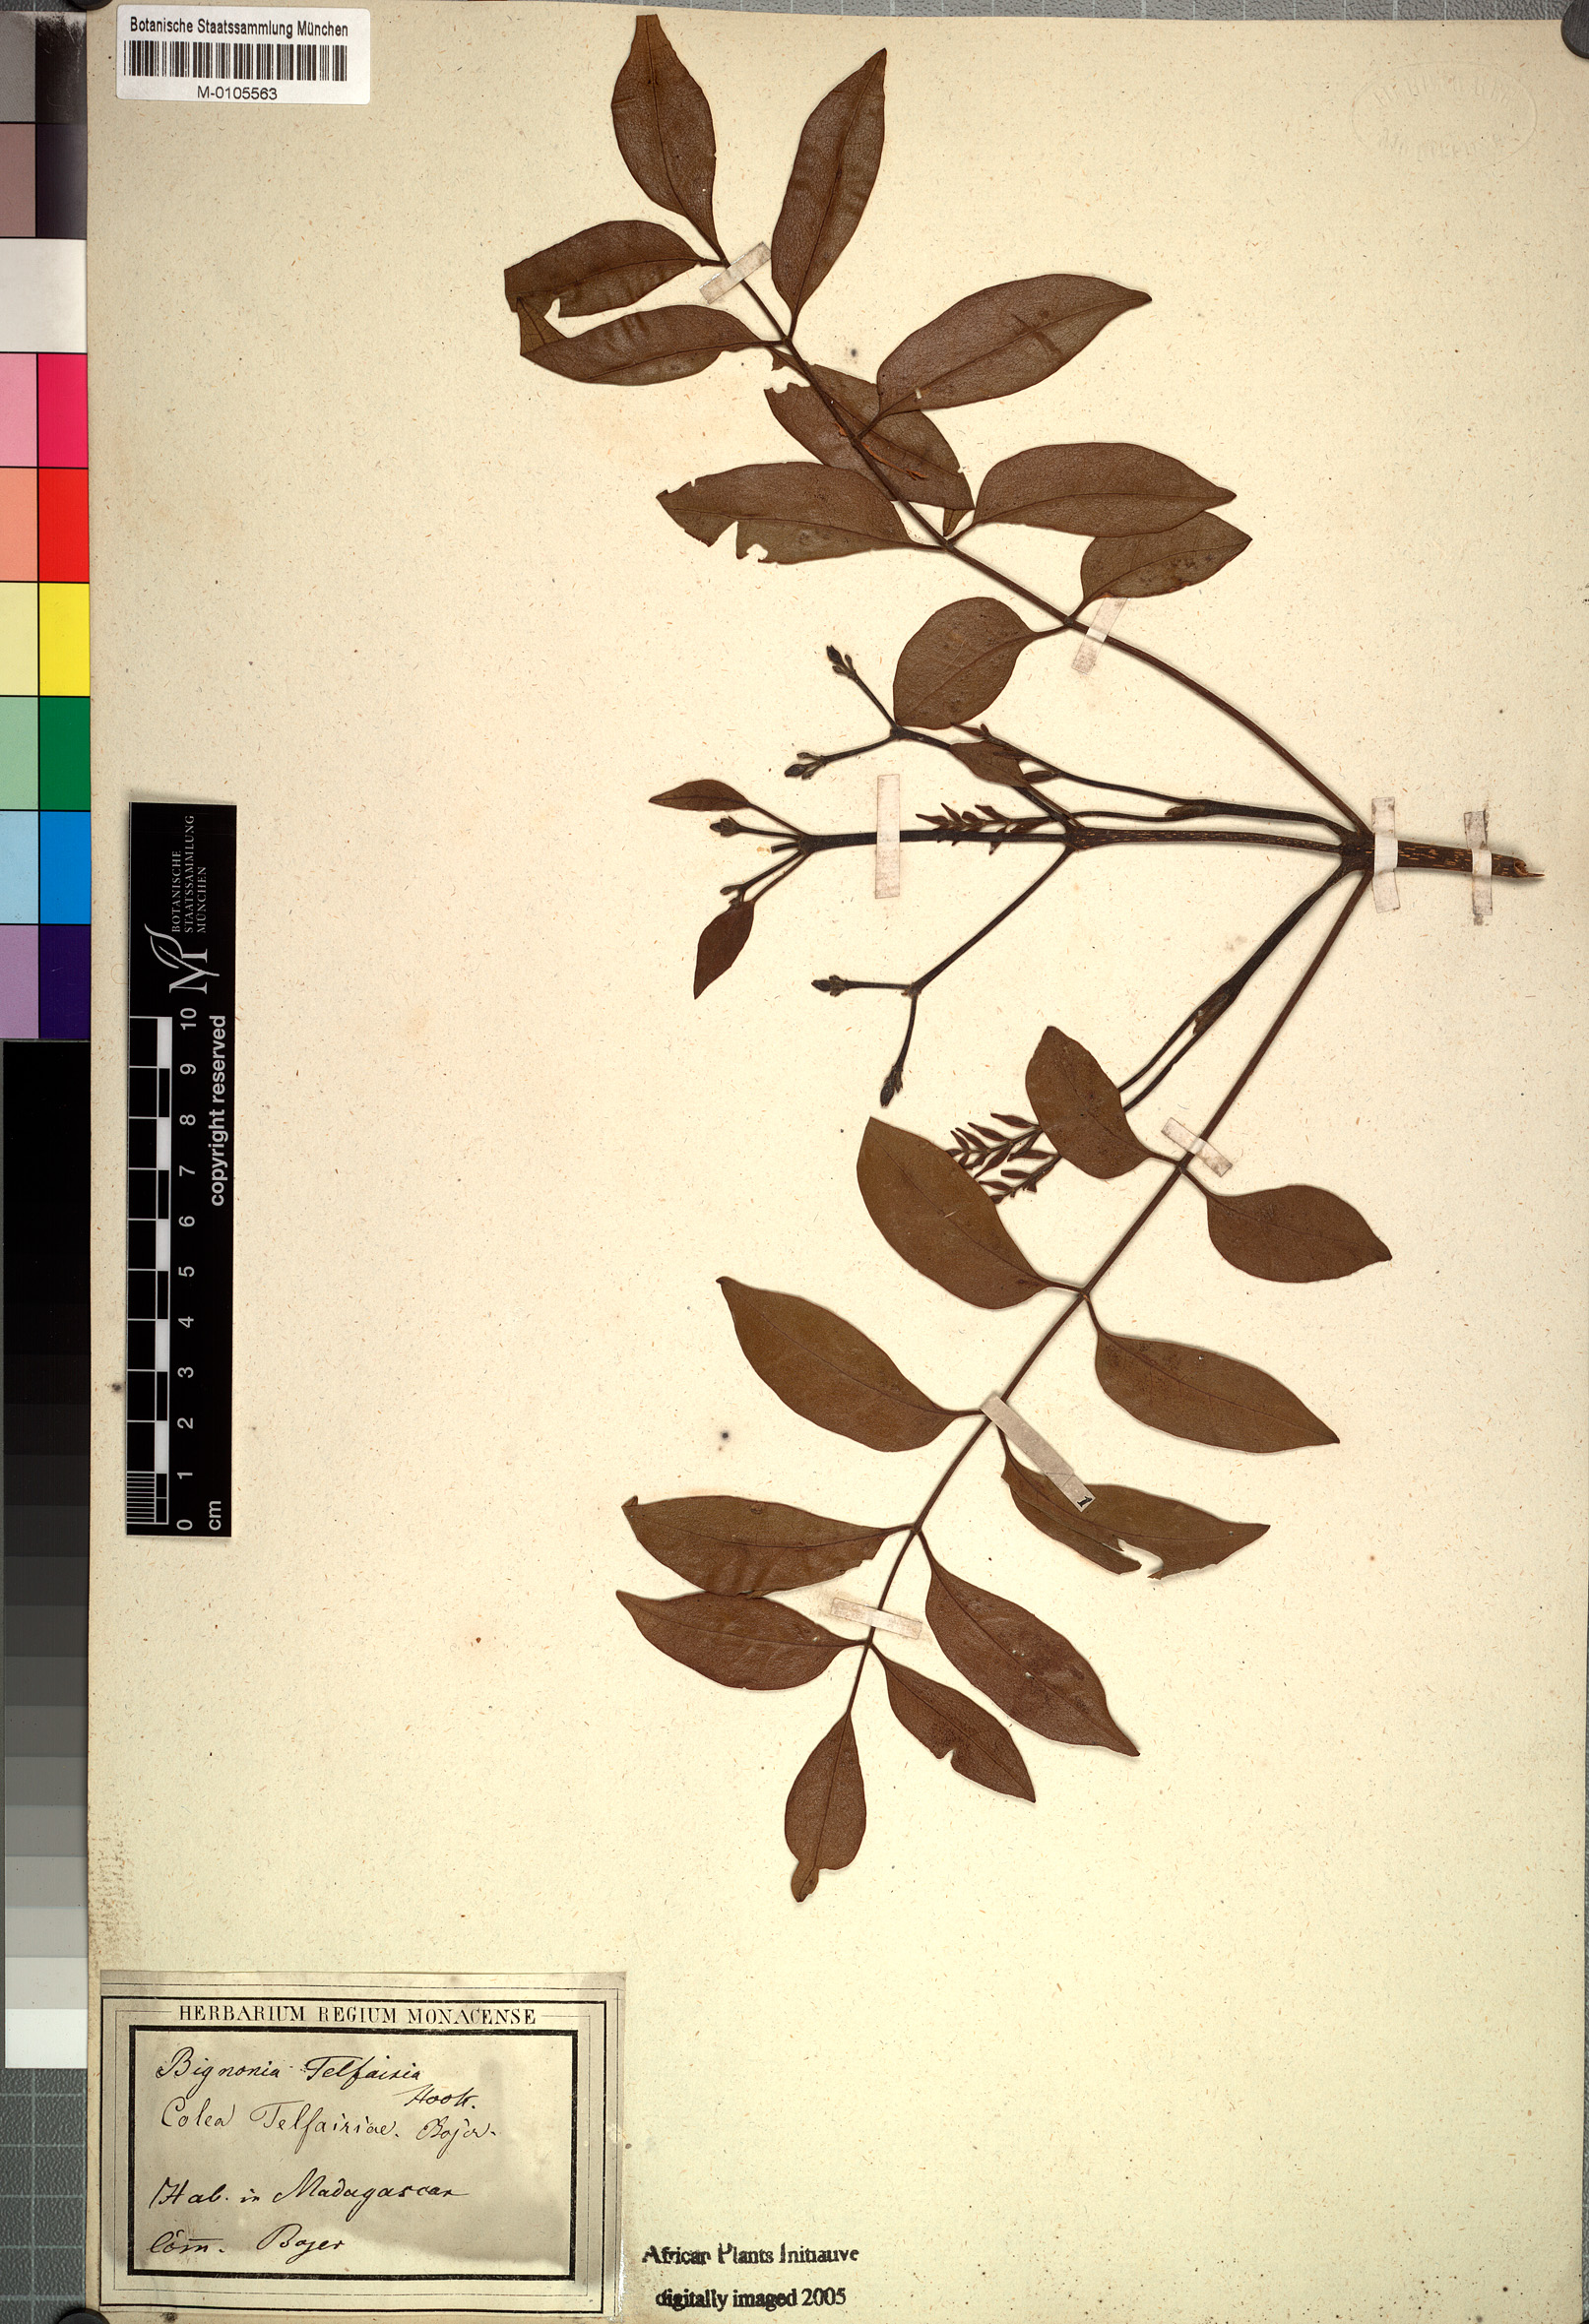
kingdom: Plantae
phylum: Tracheophyta
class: Magnoliopsida
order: Lamiales
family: Bignoniaceae
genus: Rhodocolea
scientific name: Rhodocolea telfairiae
